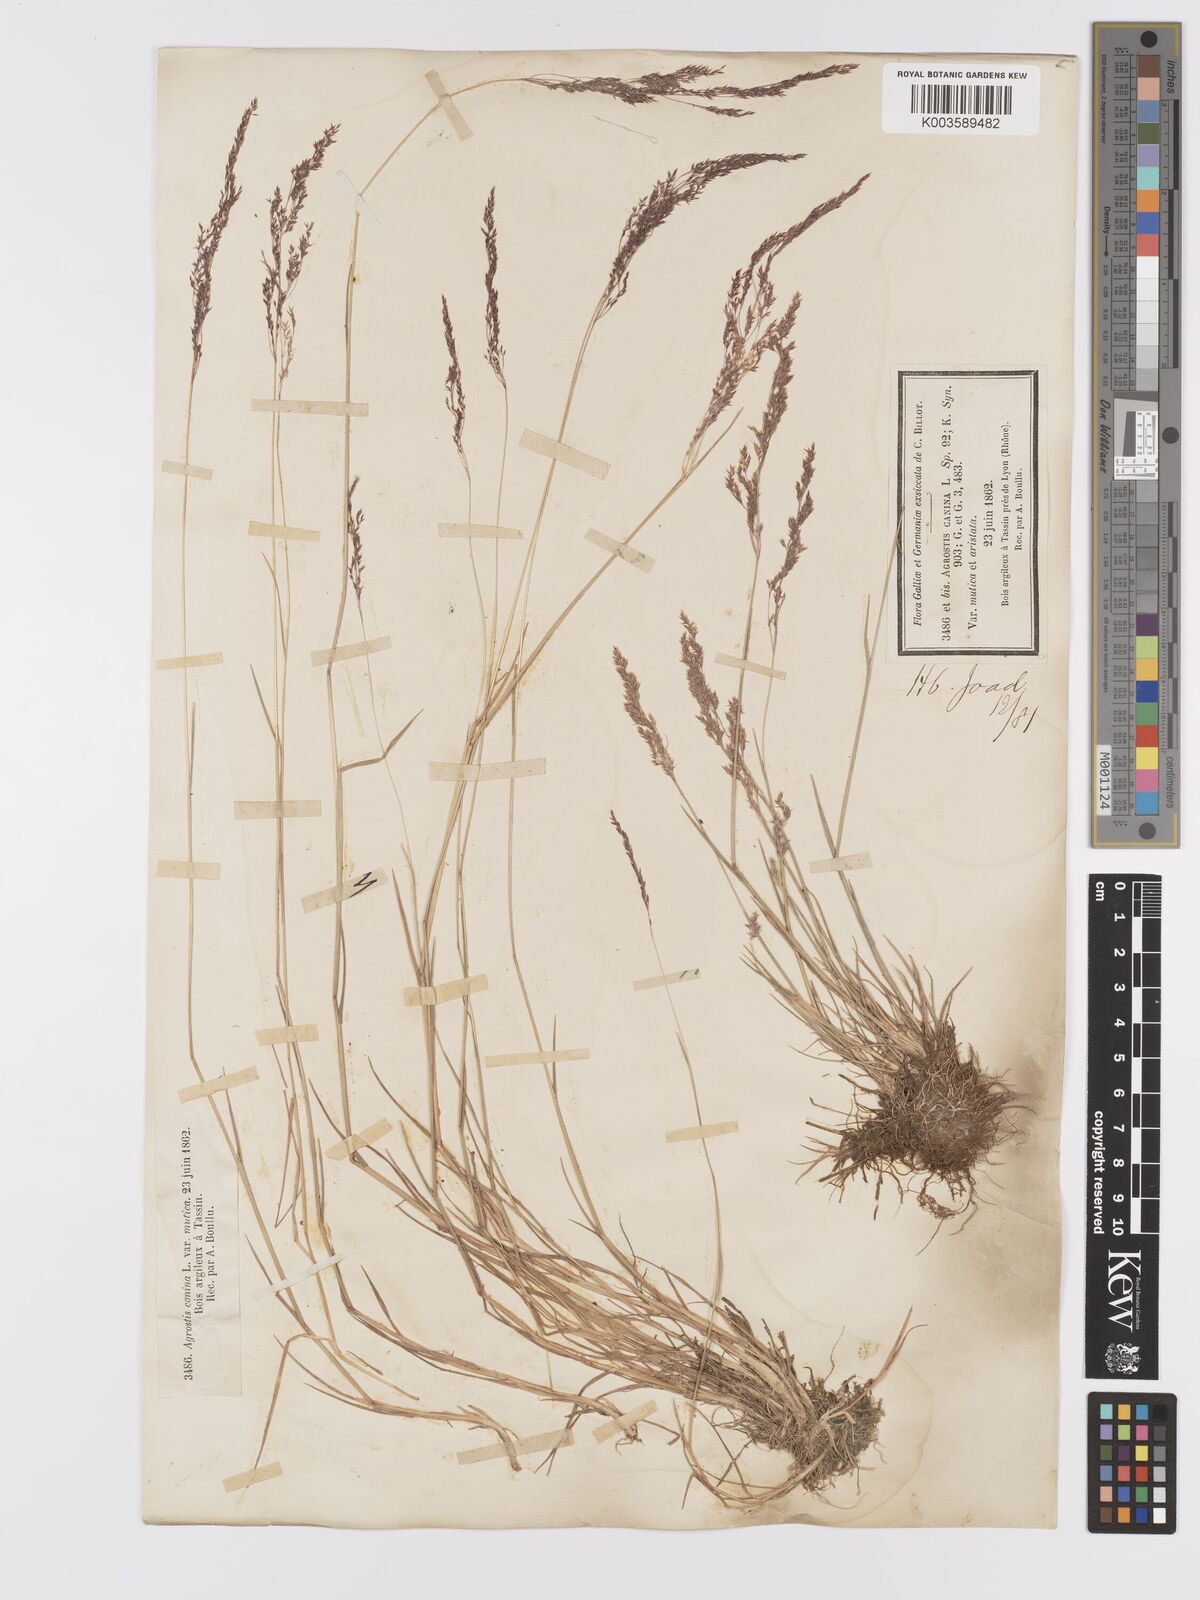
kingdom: Plantae
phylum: Tracheophyta
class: Liliopsida
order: Poales
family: Poaceae
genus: Agrostis
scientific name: Agrostis canina
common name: Velvet bent
